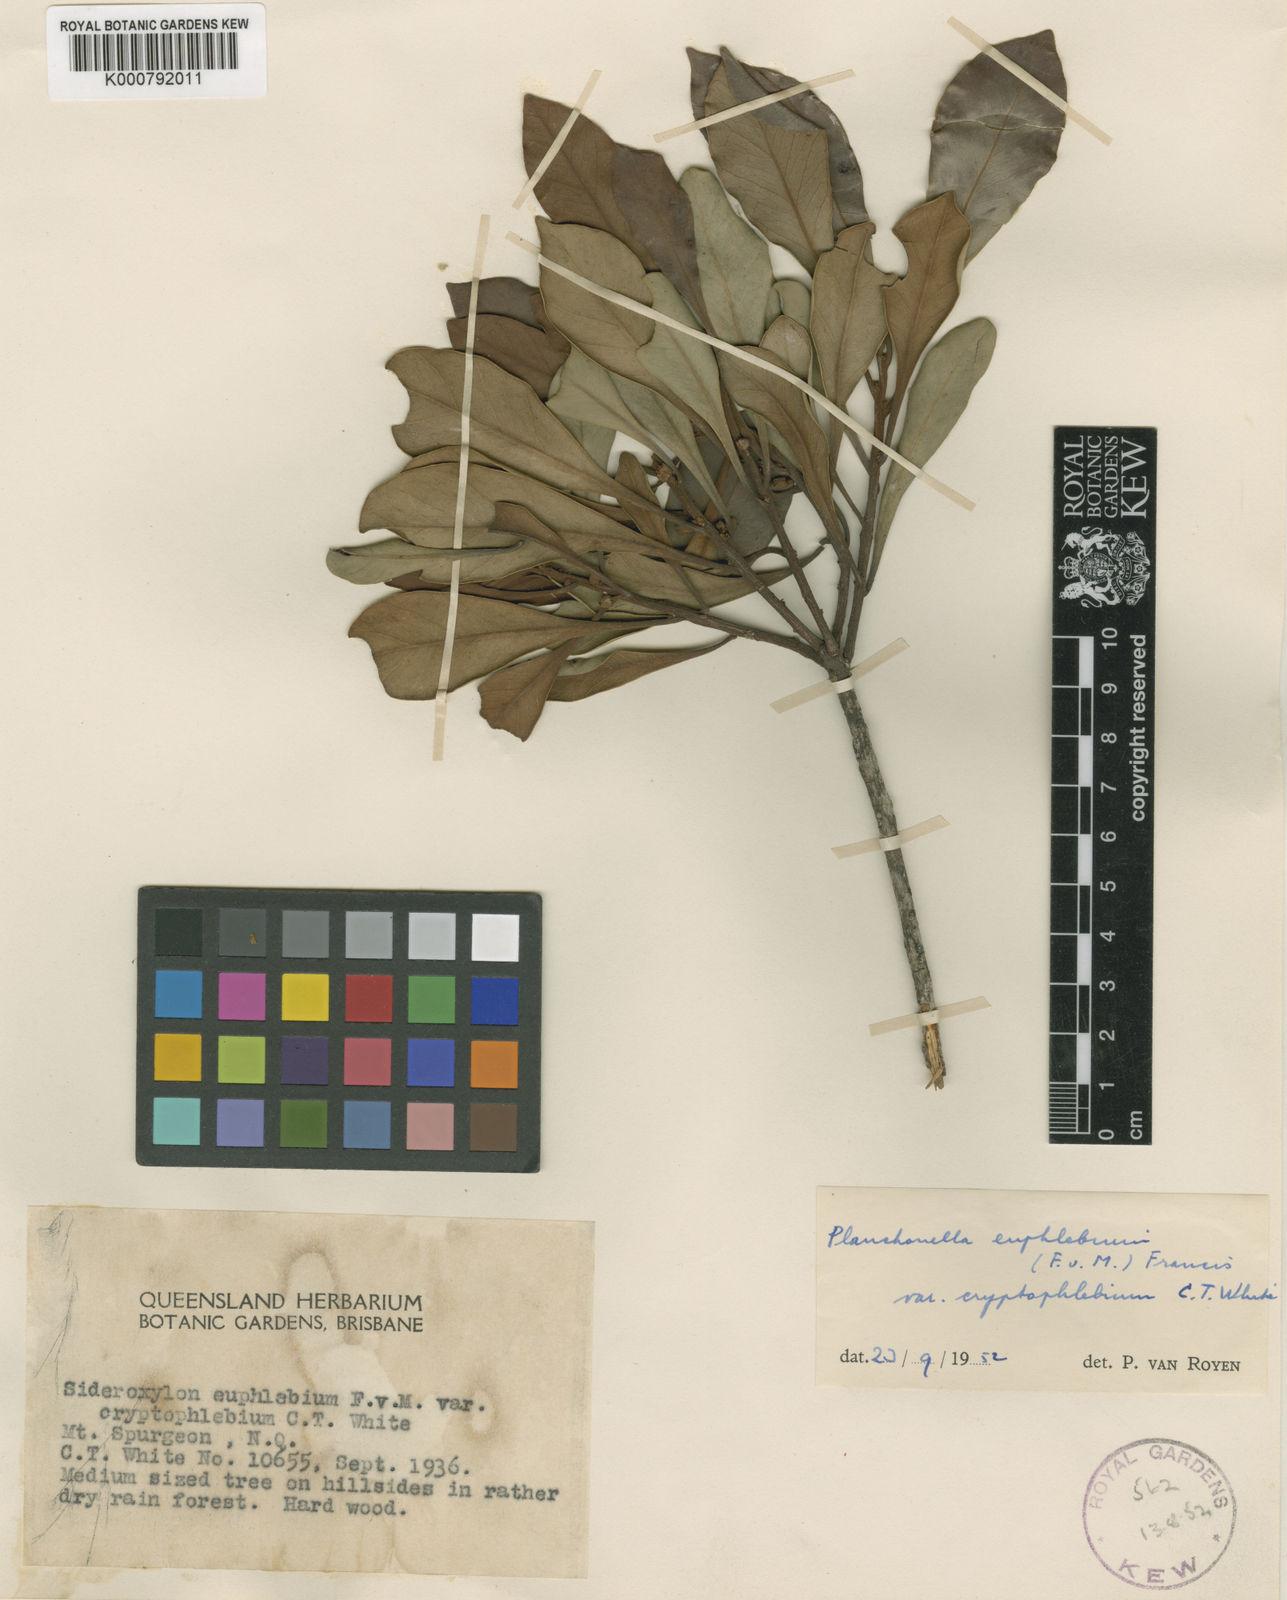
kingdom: Plantae
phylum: Tracheophyta
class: Magnoliopsida
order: Ericales
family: Sapotaceae
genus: Planchonella
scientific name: Planchonella euphlebia
